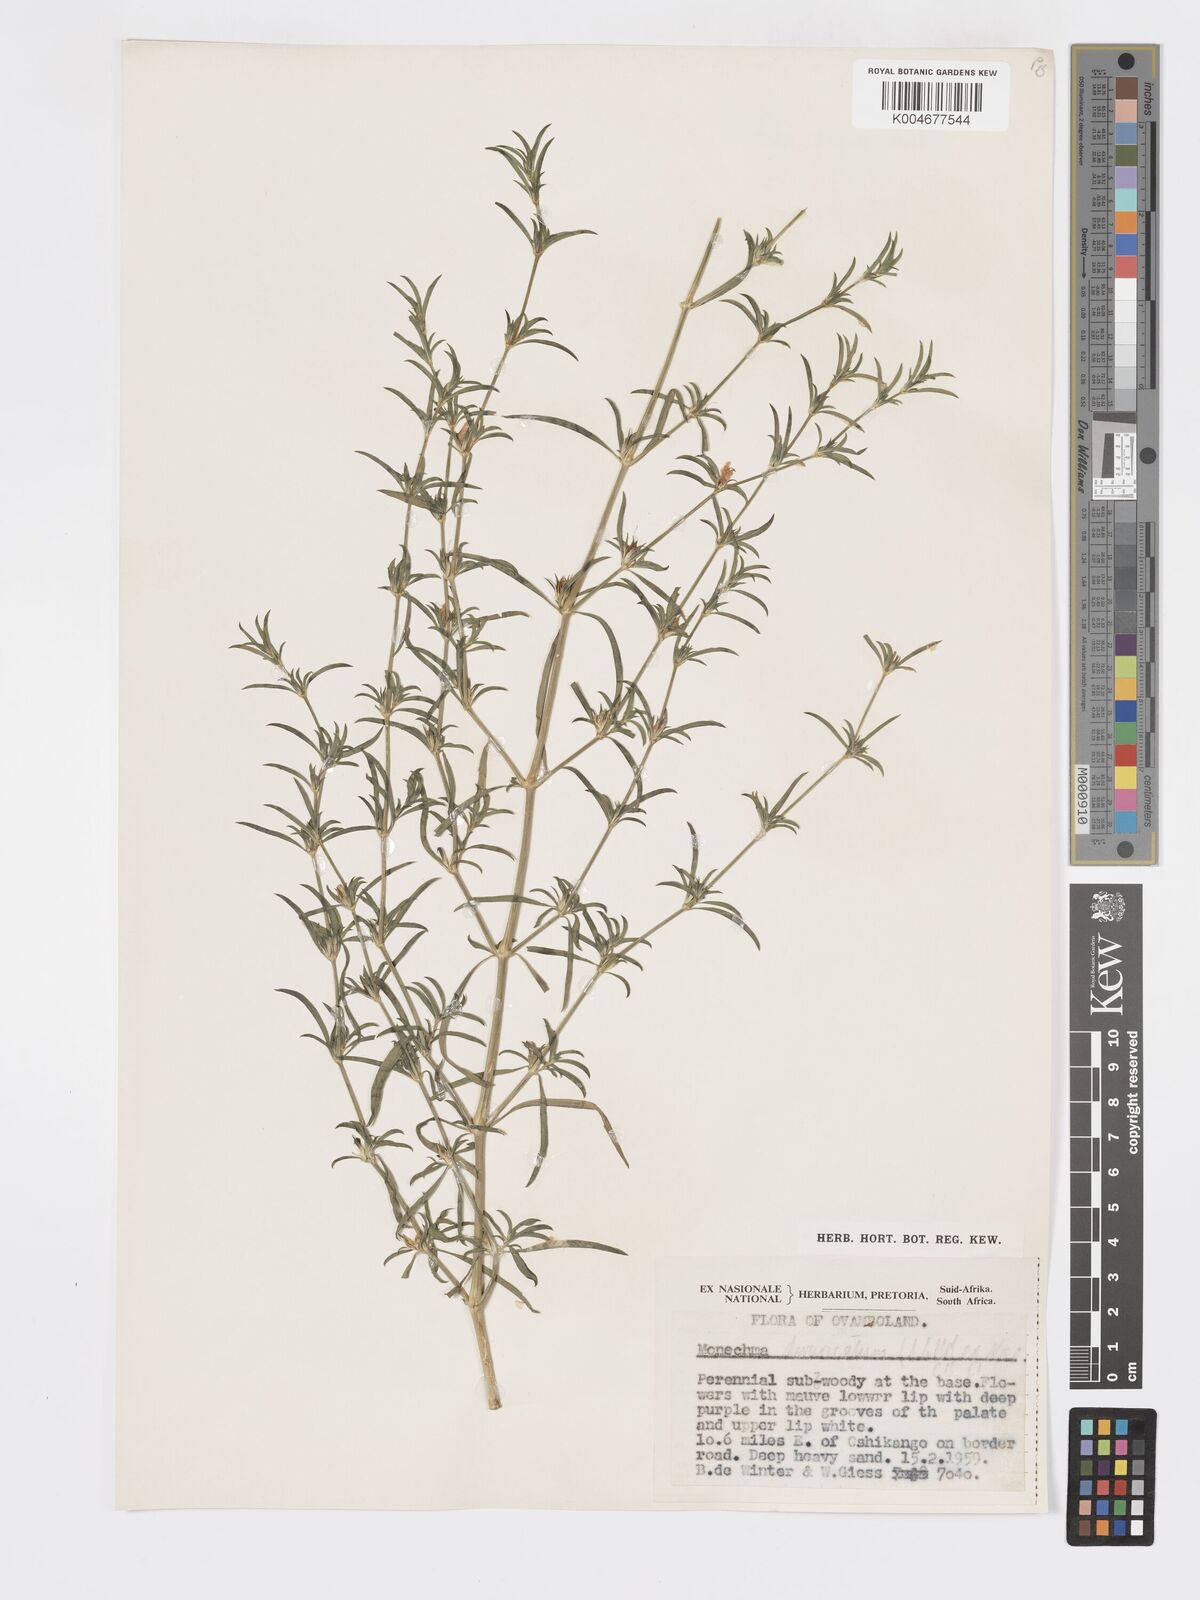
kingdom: Plantae
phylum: Tracheophyta
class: Magnoliopsida
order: Lamiales
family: Acanthaceae
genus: Pogonospermum
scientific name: Pogonospermum
